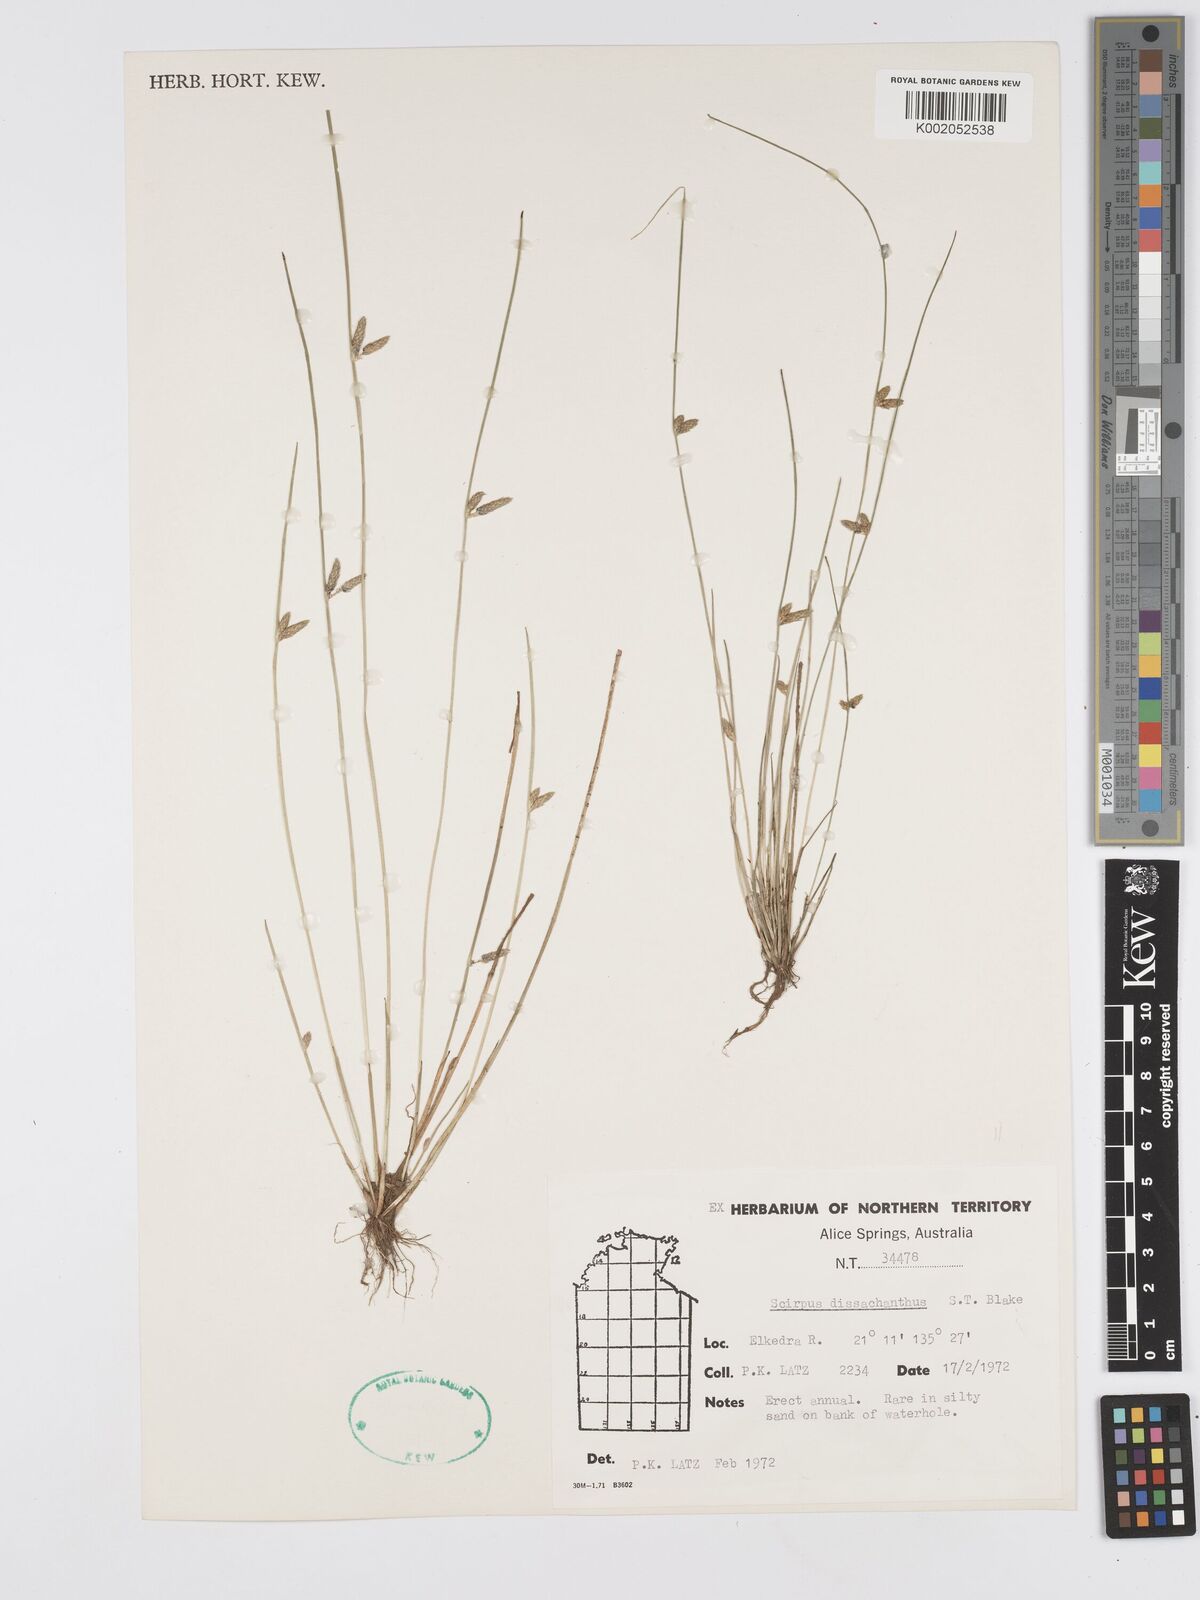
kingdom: Plantae
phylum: Tracheophyta
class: Liliopsida
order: Poales
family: Cyperaceae
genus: Schoenoplectiella
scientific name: Schoenoplectiella dissachantha
